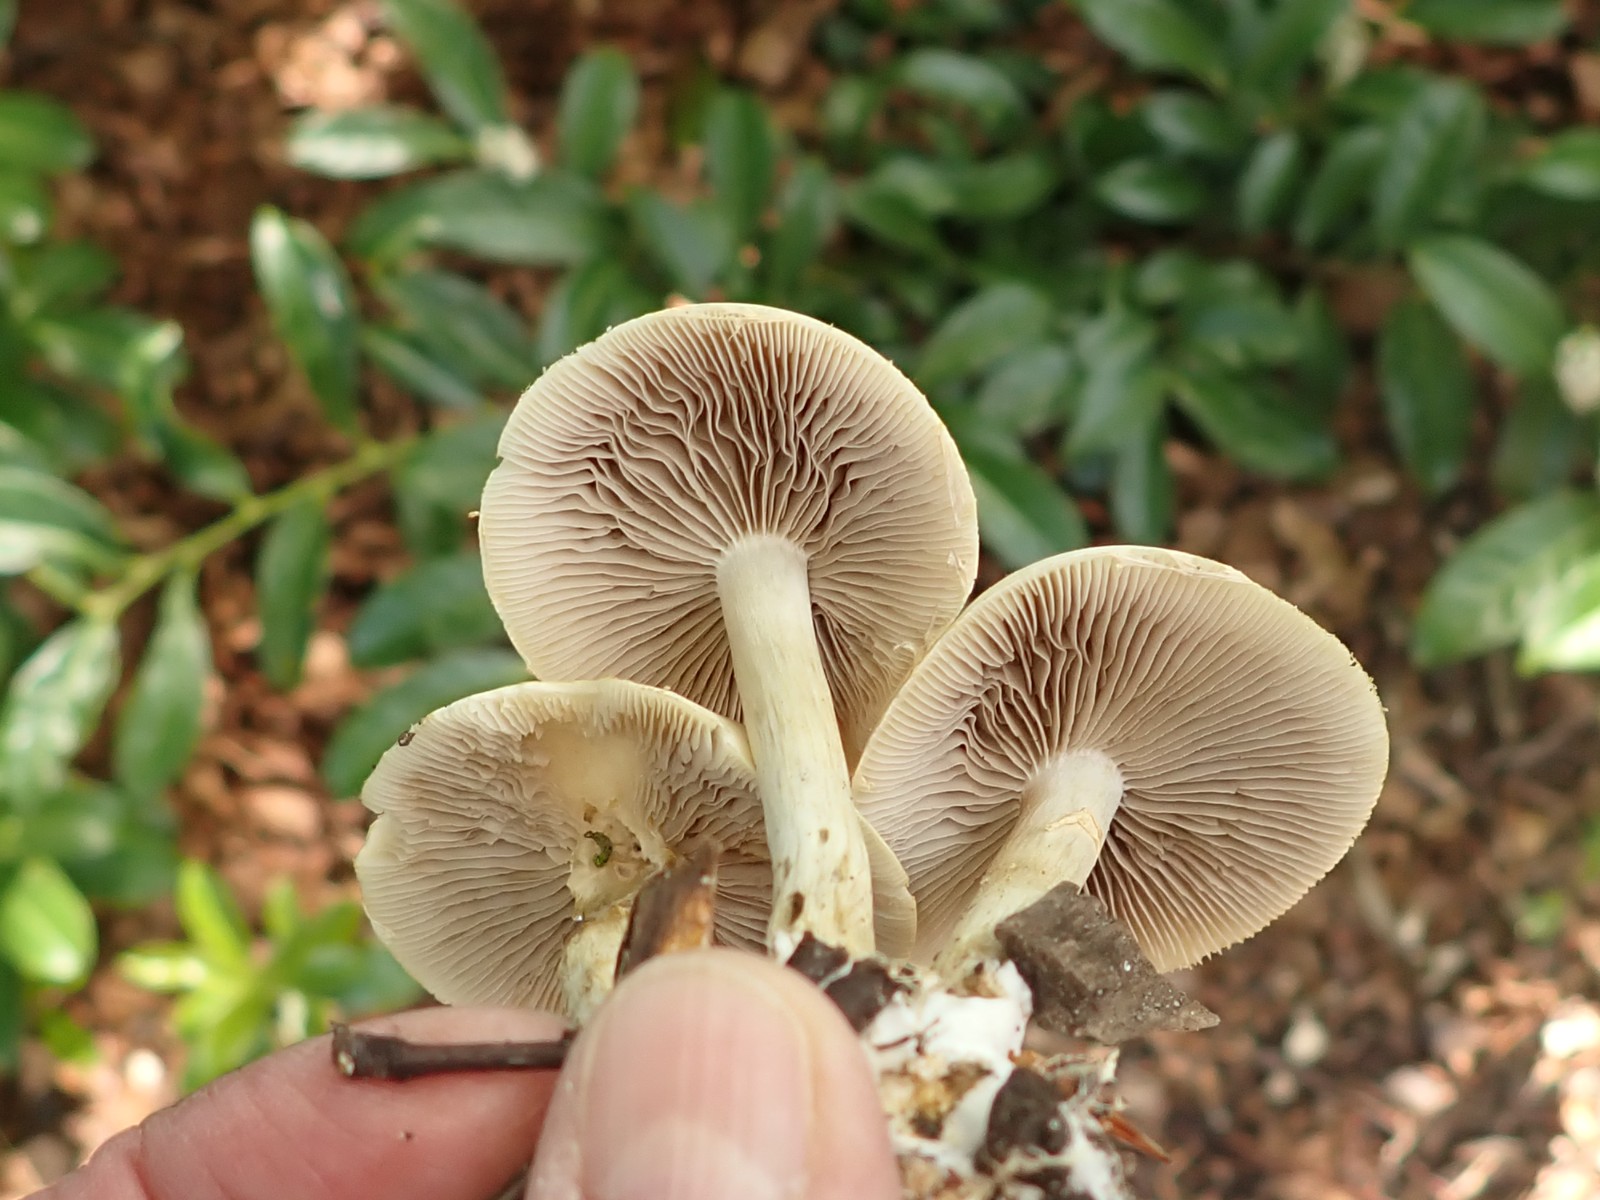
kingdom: Fungi
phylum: Basidiomycota
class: Agaricomycetes
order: Agaricales
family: Strophariaceae
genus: Agrocybe
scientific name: Agrocybe praecox
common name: tidlig agerhat
